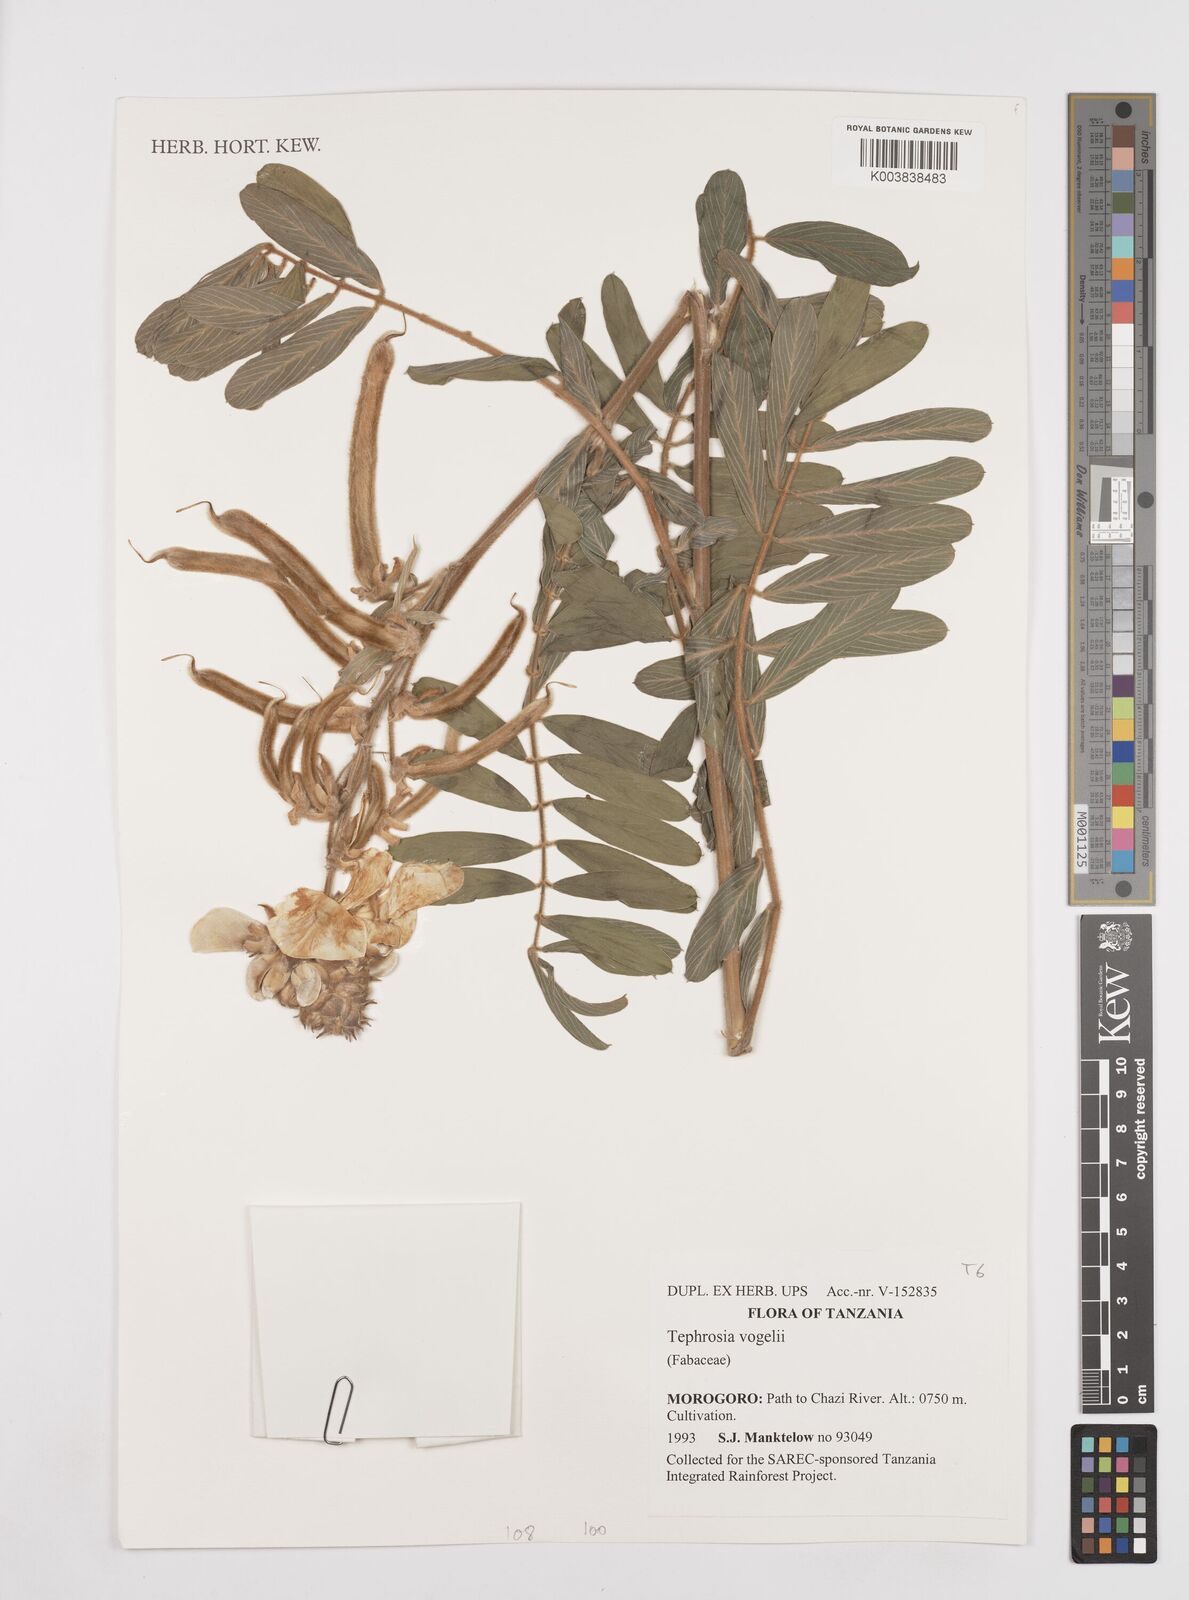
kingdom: Plantae
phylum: Tracheophyta
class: Magnoliopsida
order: Fabales
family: Fabaceae
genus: Tephrosia
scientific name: Tephrosia vogelii
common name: Vogel tephrosia
